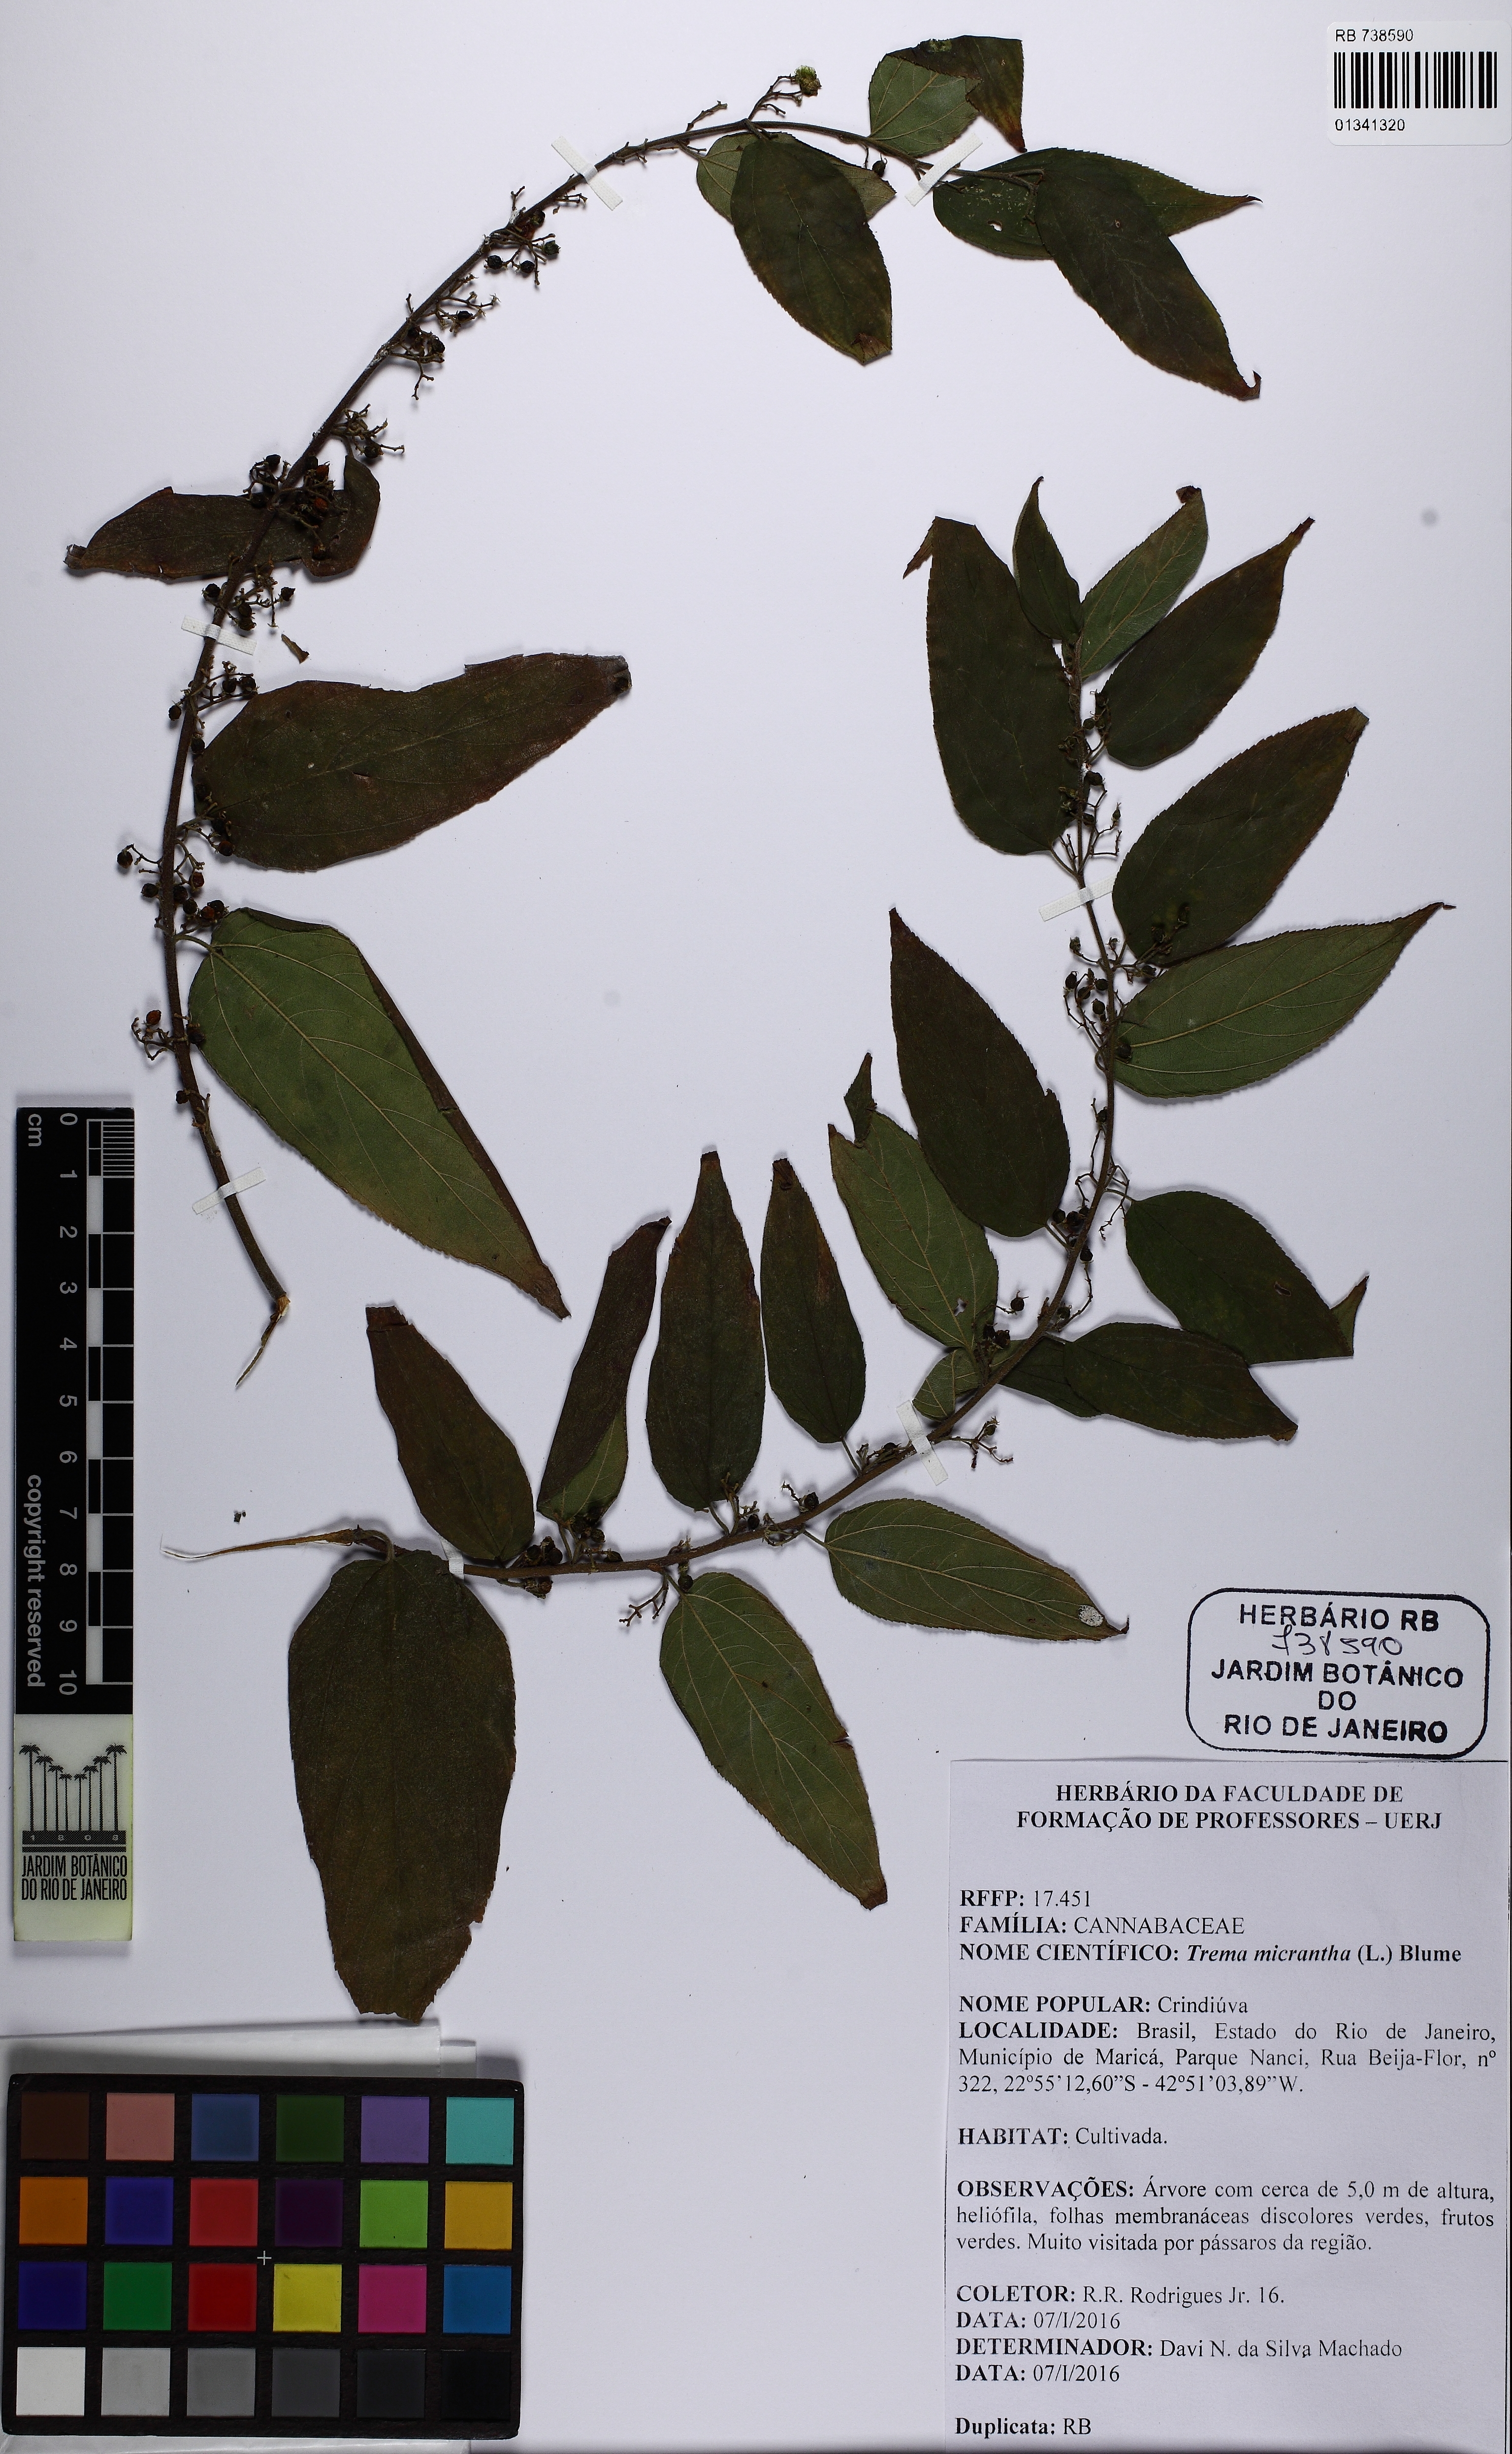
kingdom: Plantae
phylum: Tracheophyta
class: Magnoliopsida
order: Rosales
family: Cannabaceae
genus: Trema
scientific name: Trema micranthum
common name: Jamaican nettletree
